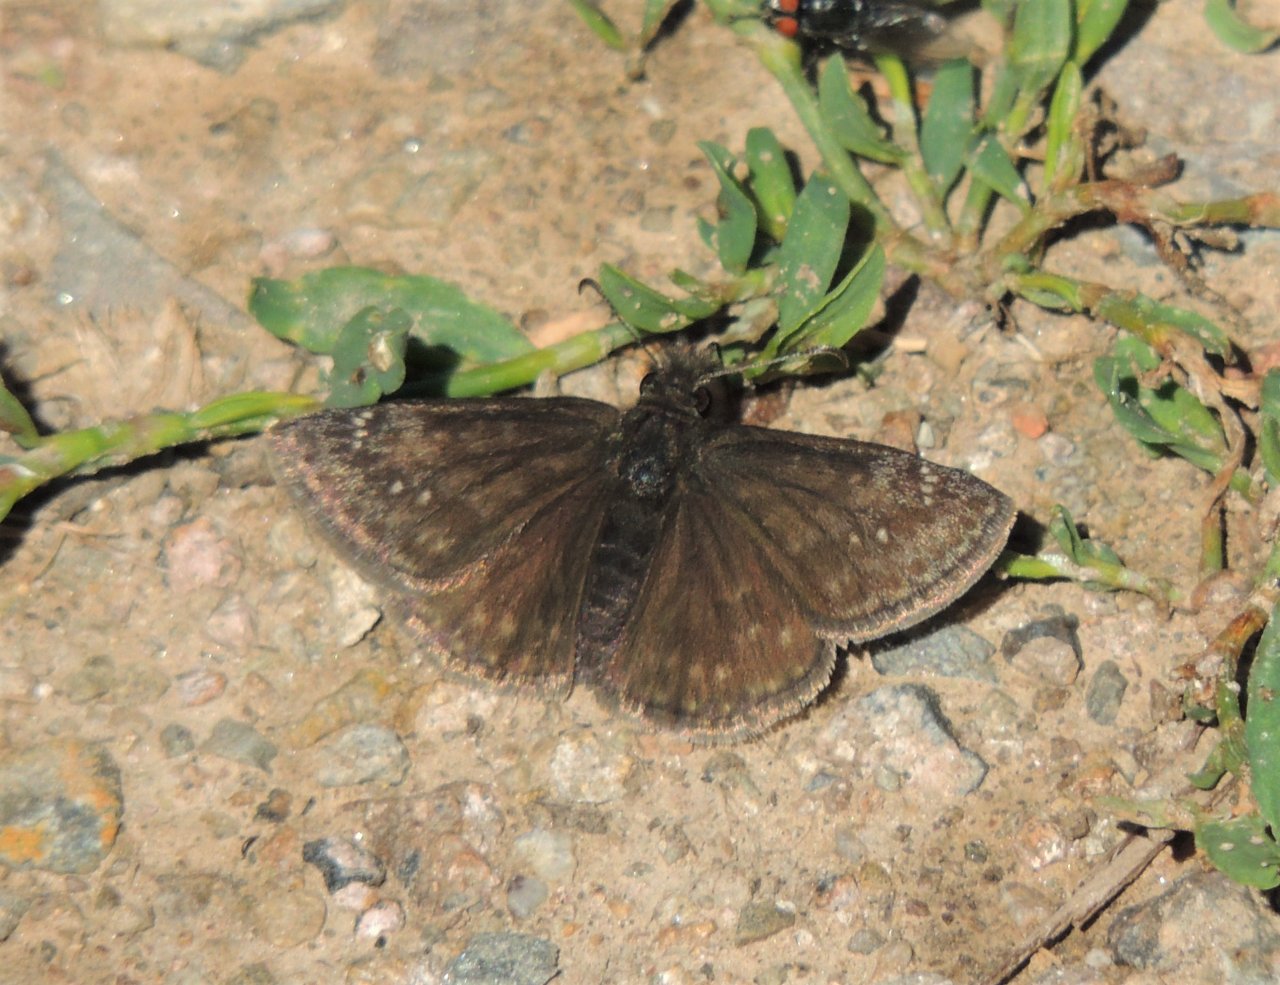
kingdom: Animalia
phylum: Arthropoda
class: Insecta
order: Lepidoptera
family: Hesperiidae
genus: Gesta
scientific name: Gesta
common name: Persius Duskywing
